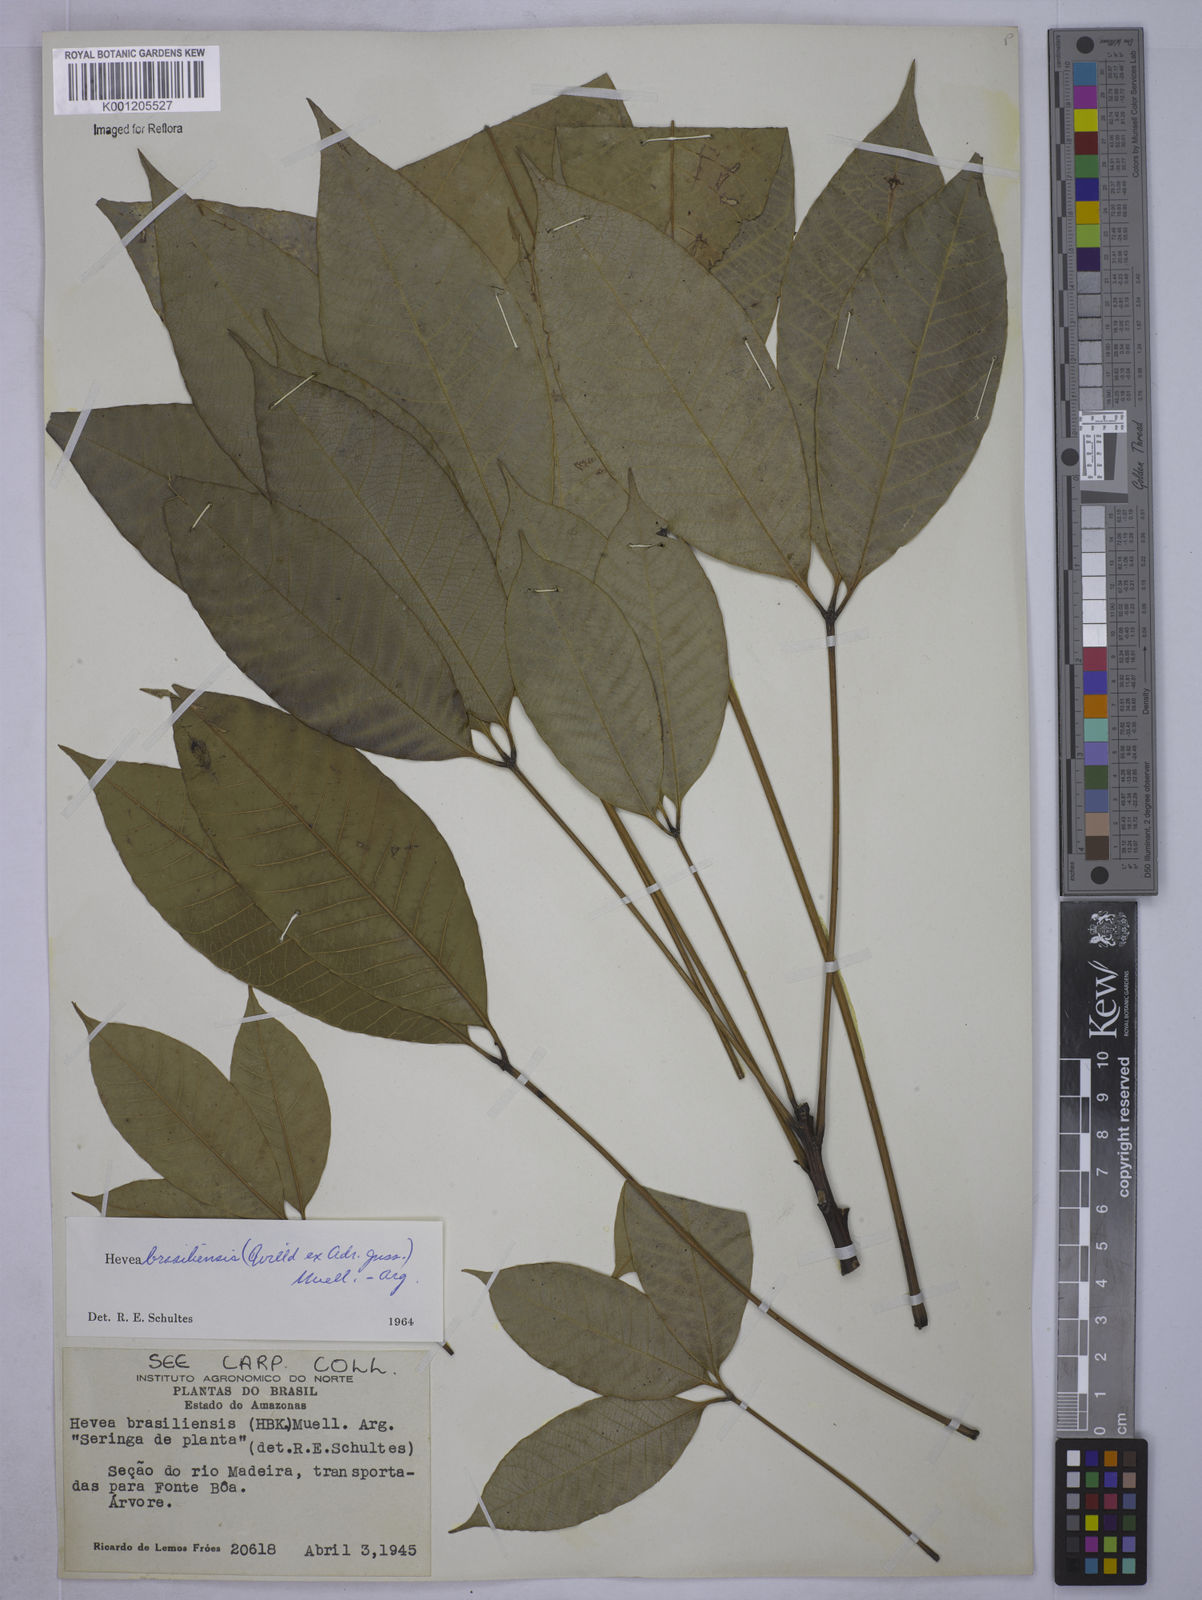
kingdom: Plantae
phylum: Tracheophyta
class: Magnoliopsida
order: Malpighiales
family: Euphorbiaceae
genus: Hevea
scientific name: Hevea
